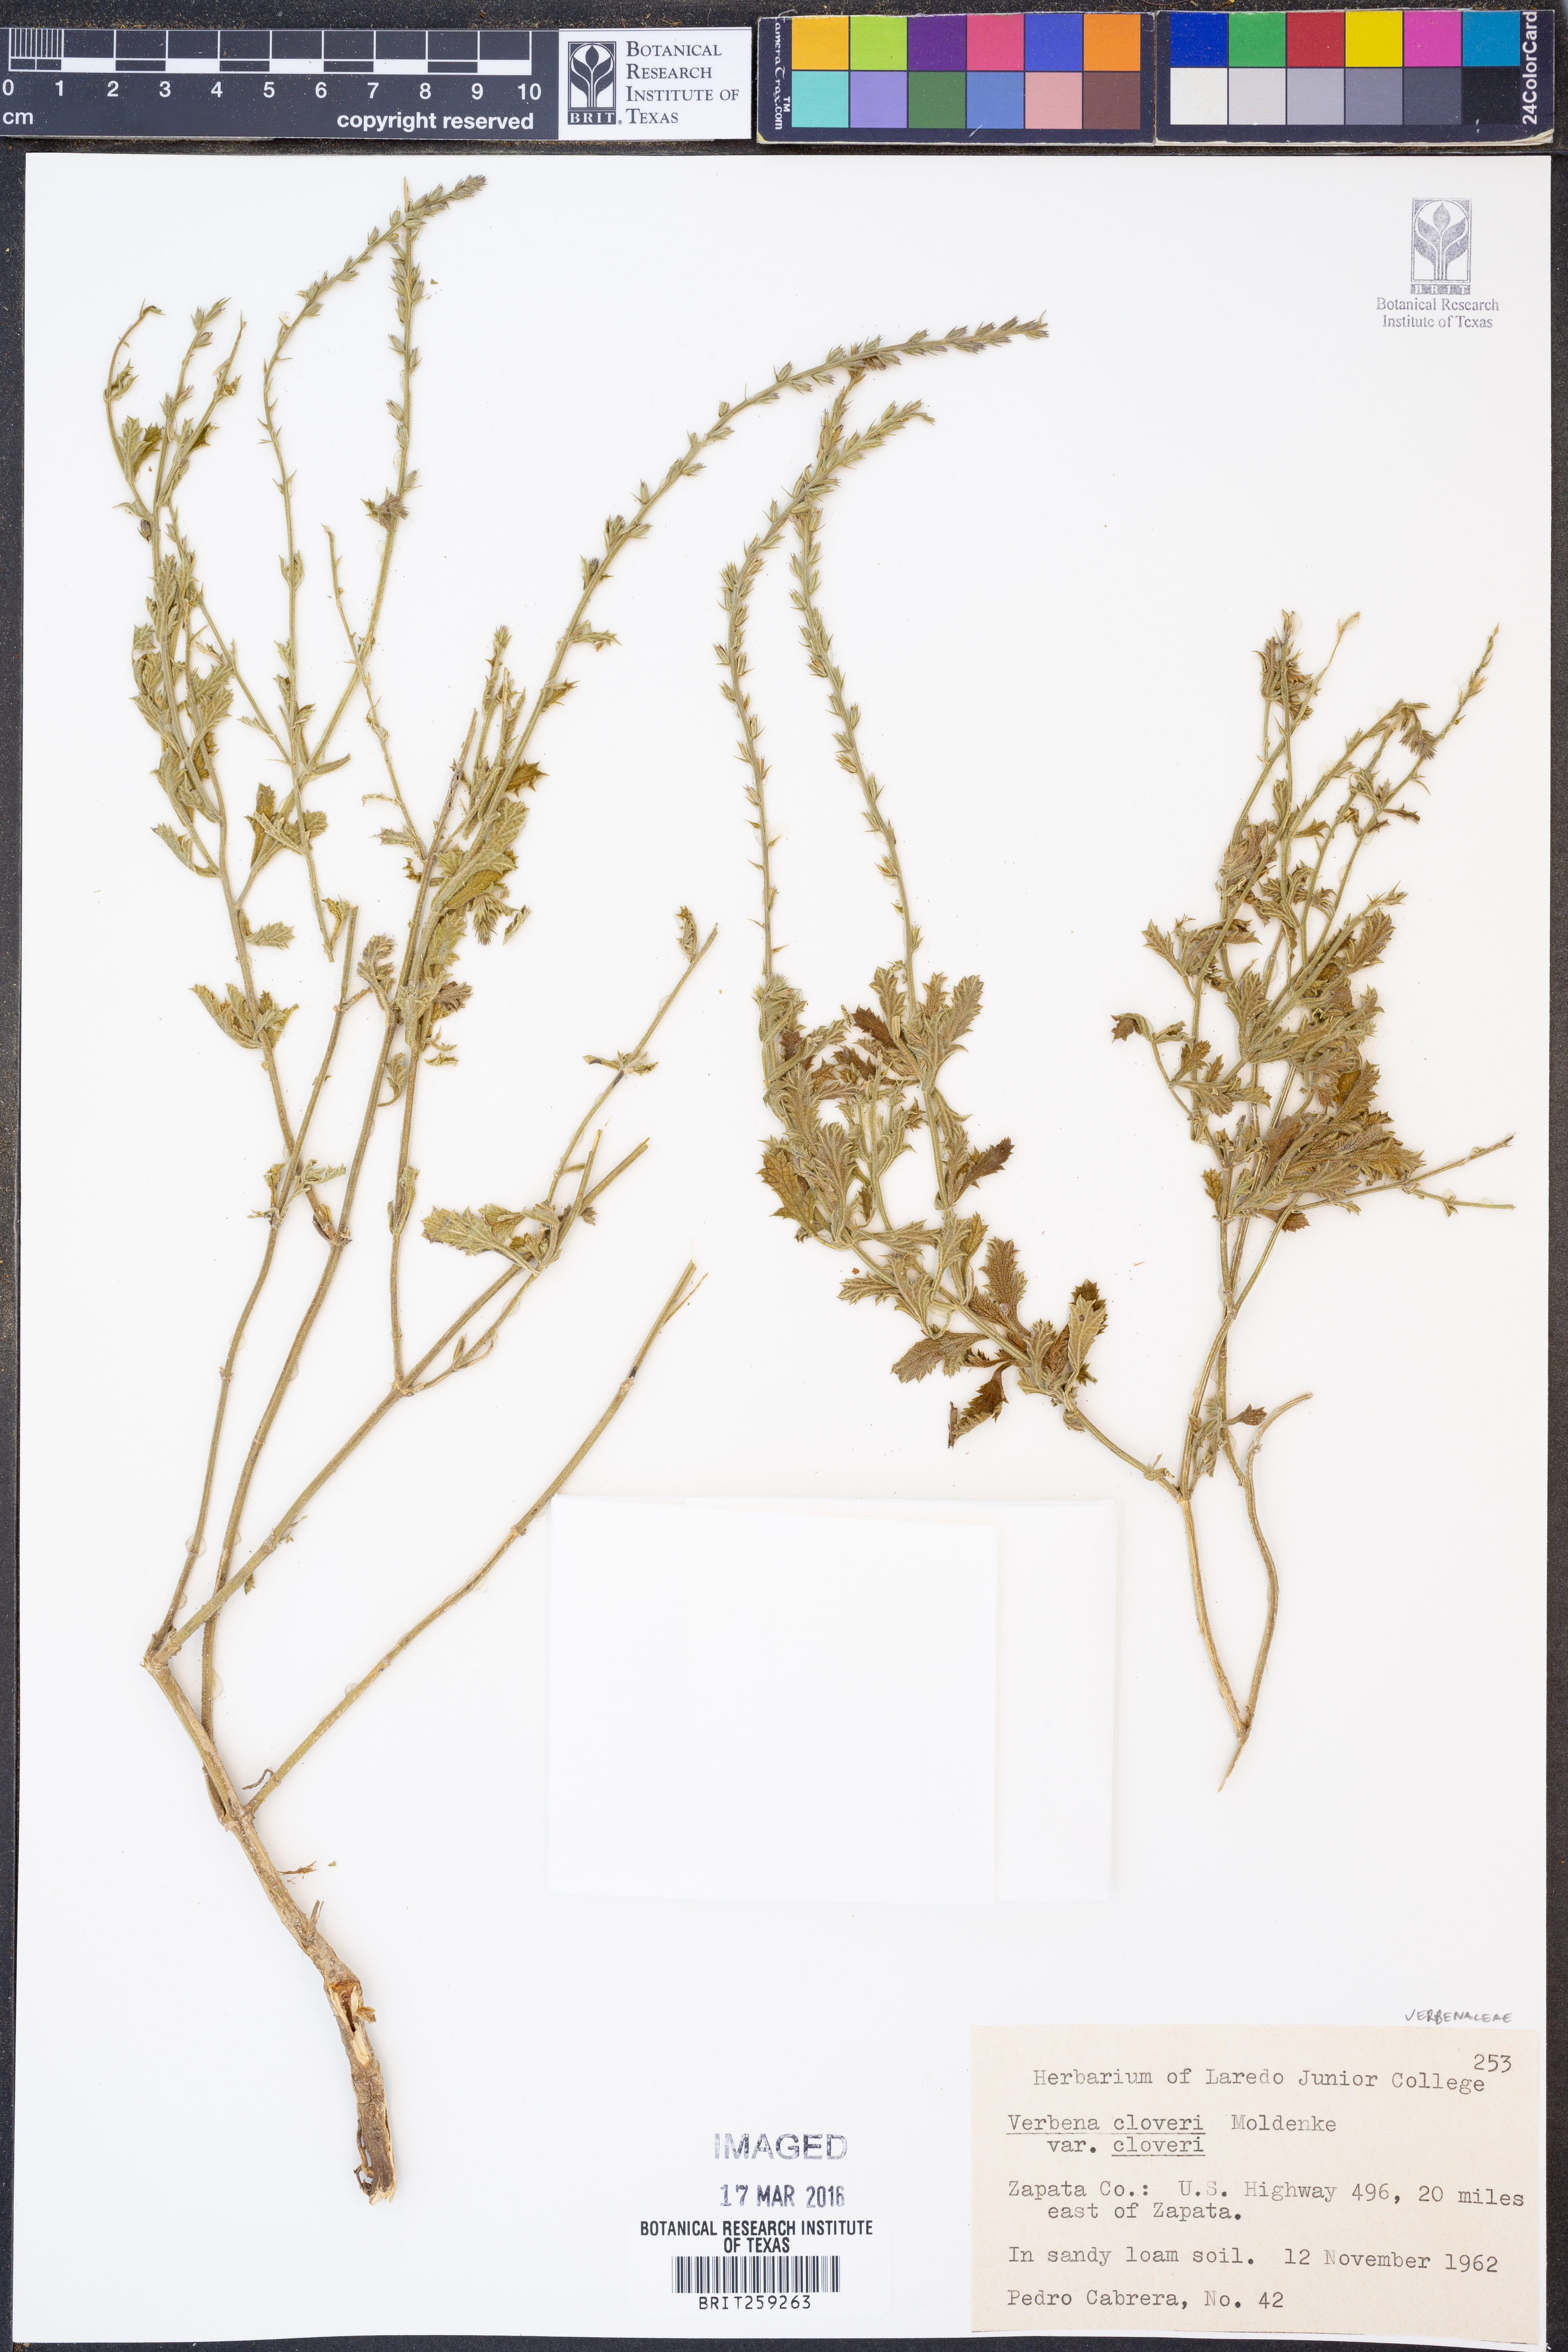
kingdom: Plantae
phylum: Tracheophyta
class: Magnoliopsida
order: Lamiales
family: Verbenaceae
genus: Verbena
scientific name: Verbena cloverae
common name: Clover's vervain
